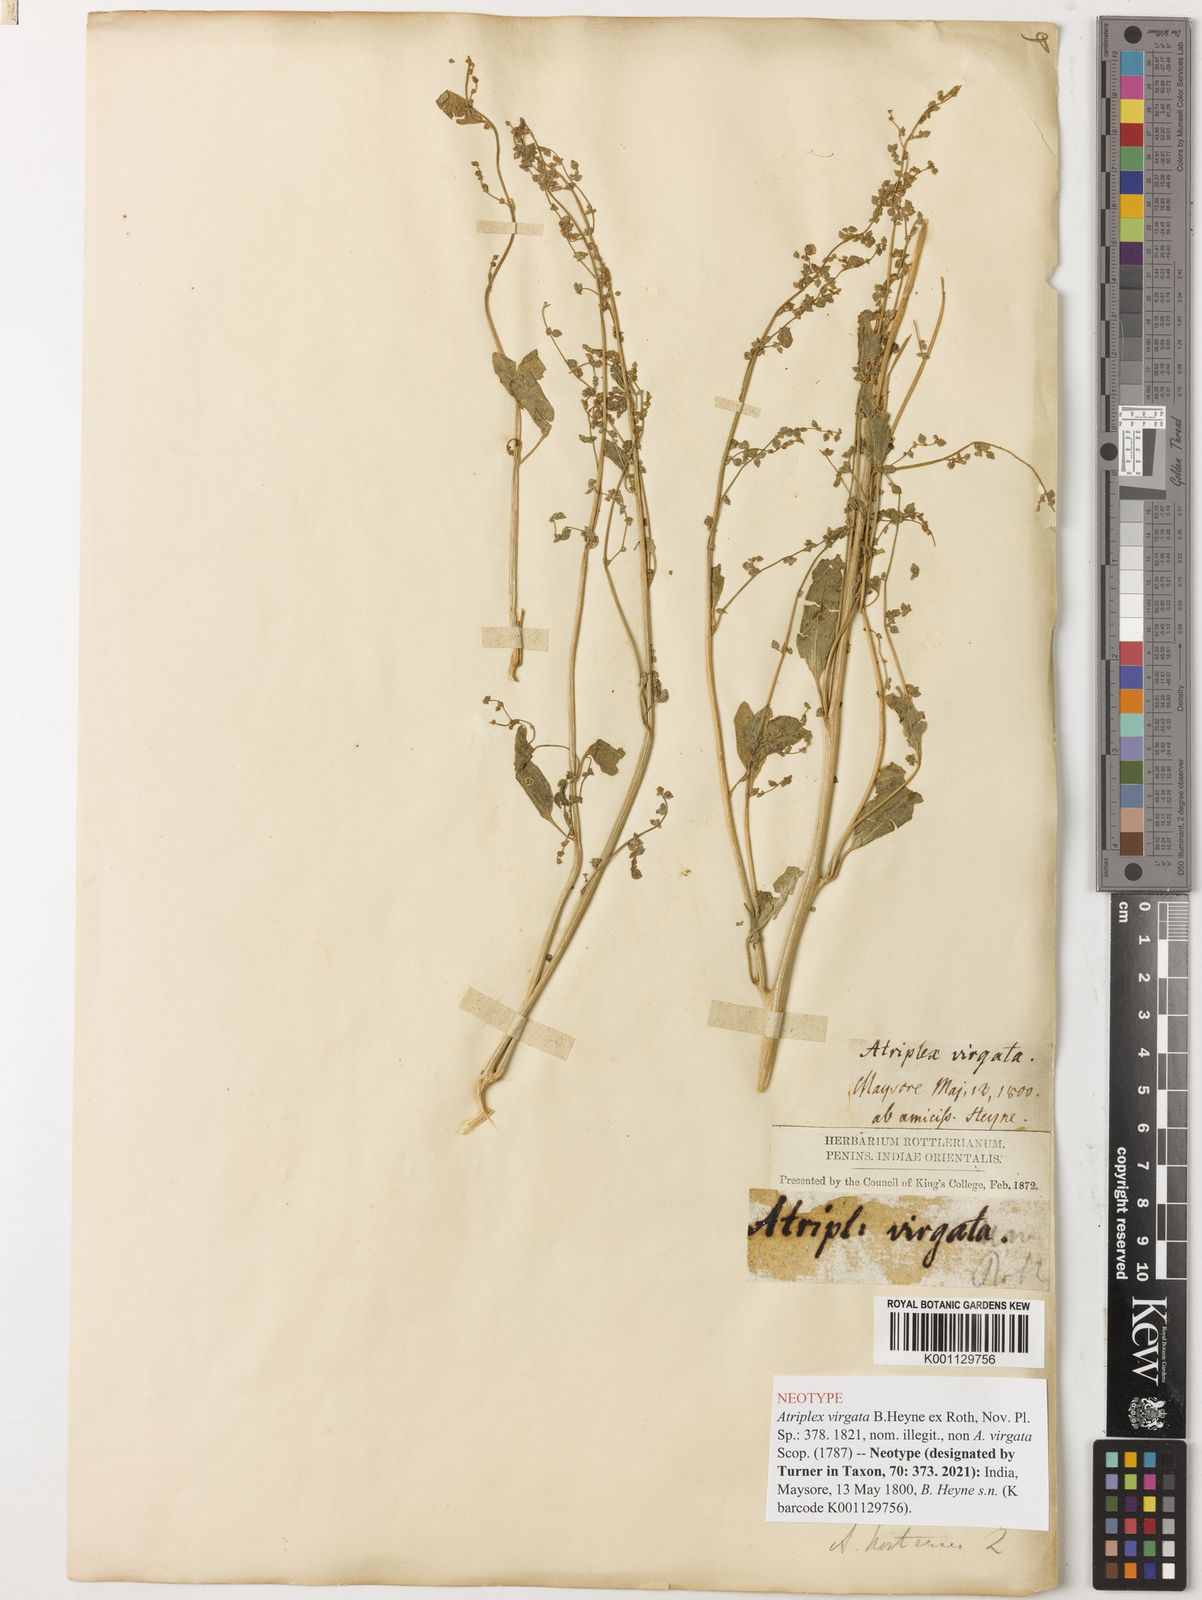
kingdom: Plantae
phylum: Tracheophyta
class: Magnoliopsida
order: Caryophyllales
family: Amaranthaceae
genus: Atriplex
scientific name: Atriplex hortensis
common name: Garden orache
